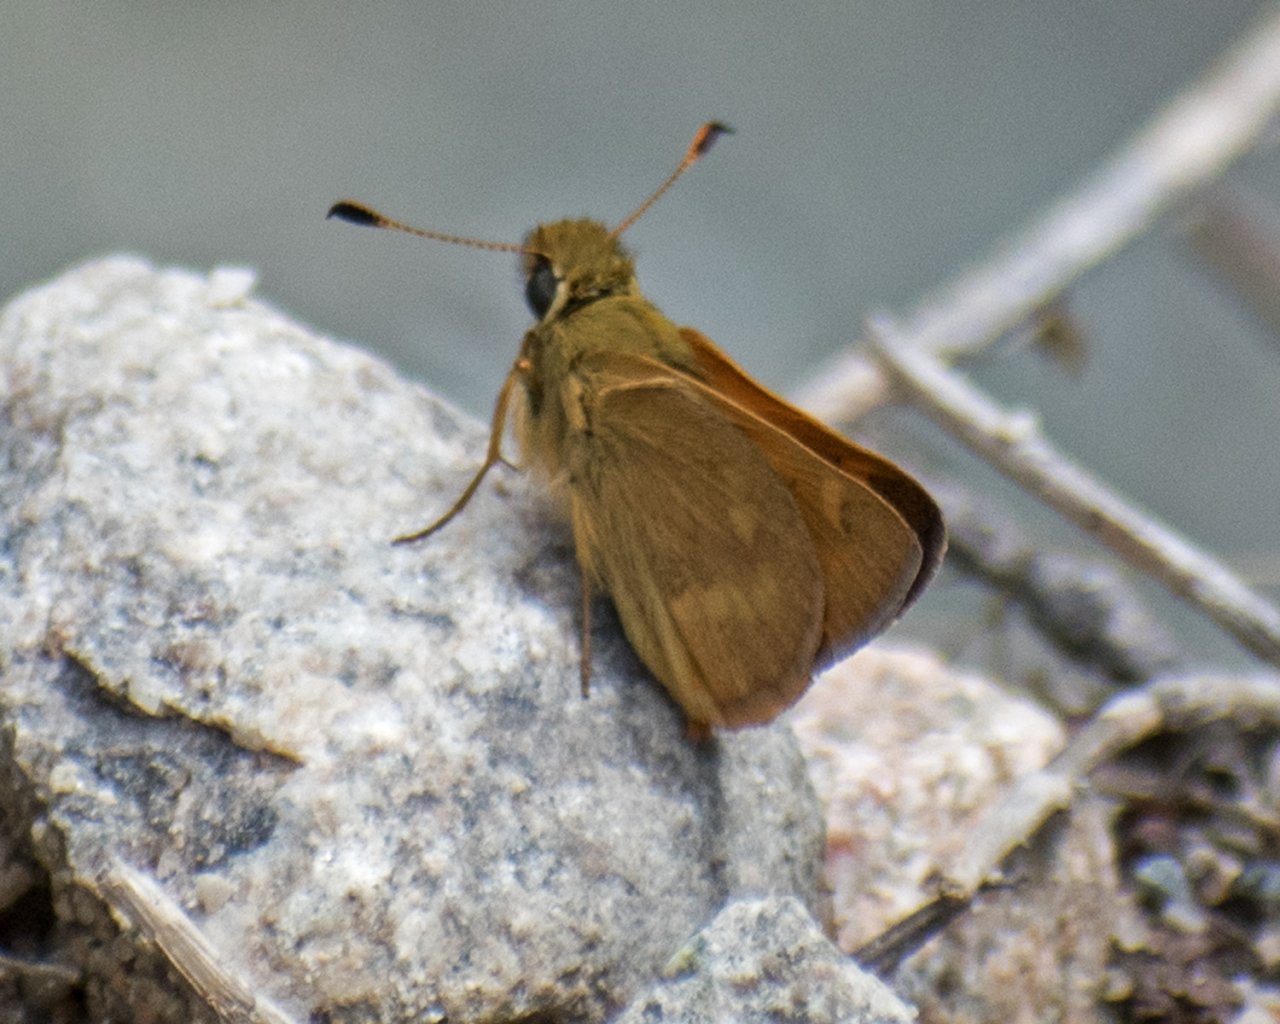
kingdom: Animalia
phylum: Arthropoda
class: Insecta
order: Lepidoptera
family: Hesperiidae
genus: Ochlodes
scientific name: Ochlodes sylvanoides
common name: Woodland Skipper
